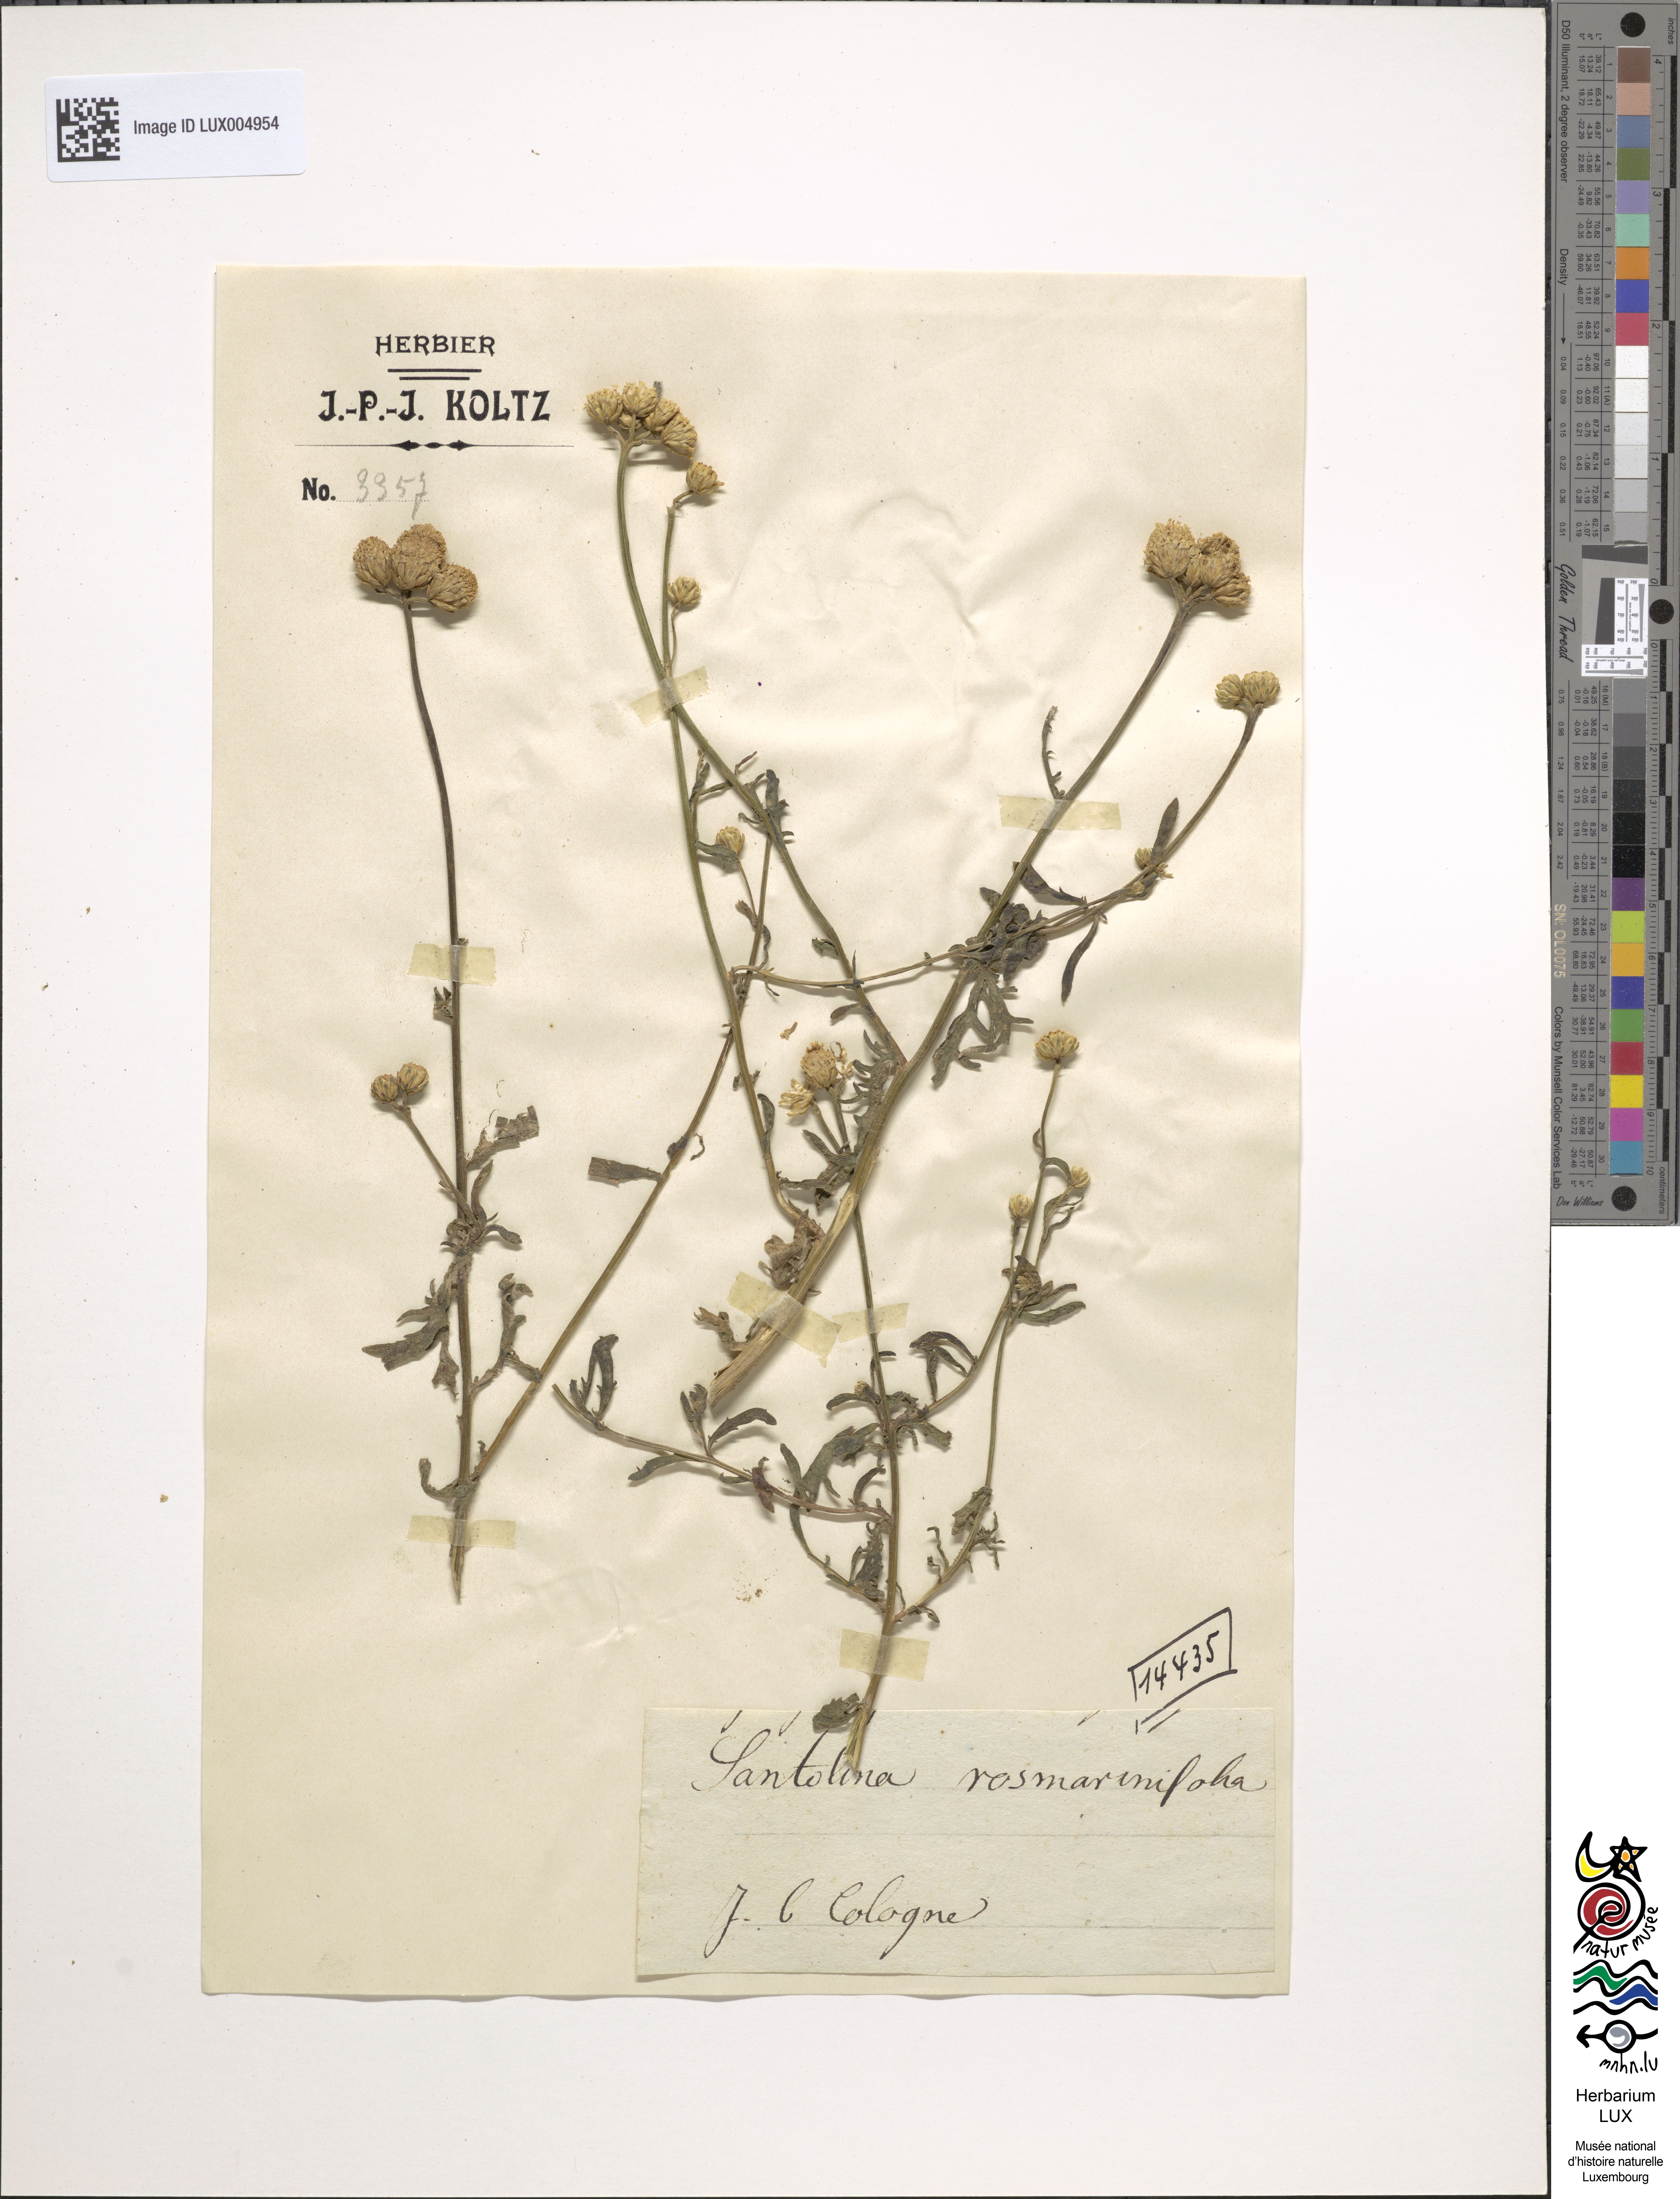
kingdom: Plantae
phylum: Tracheophyta
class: Magnoliopsida
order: Asterales
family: Asteraceae
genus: Santolina
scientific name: Santolina rosmarinifolia
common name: Holy-flax
